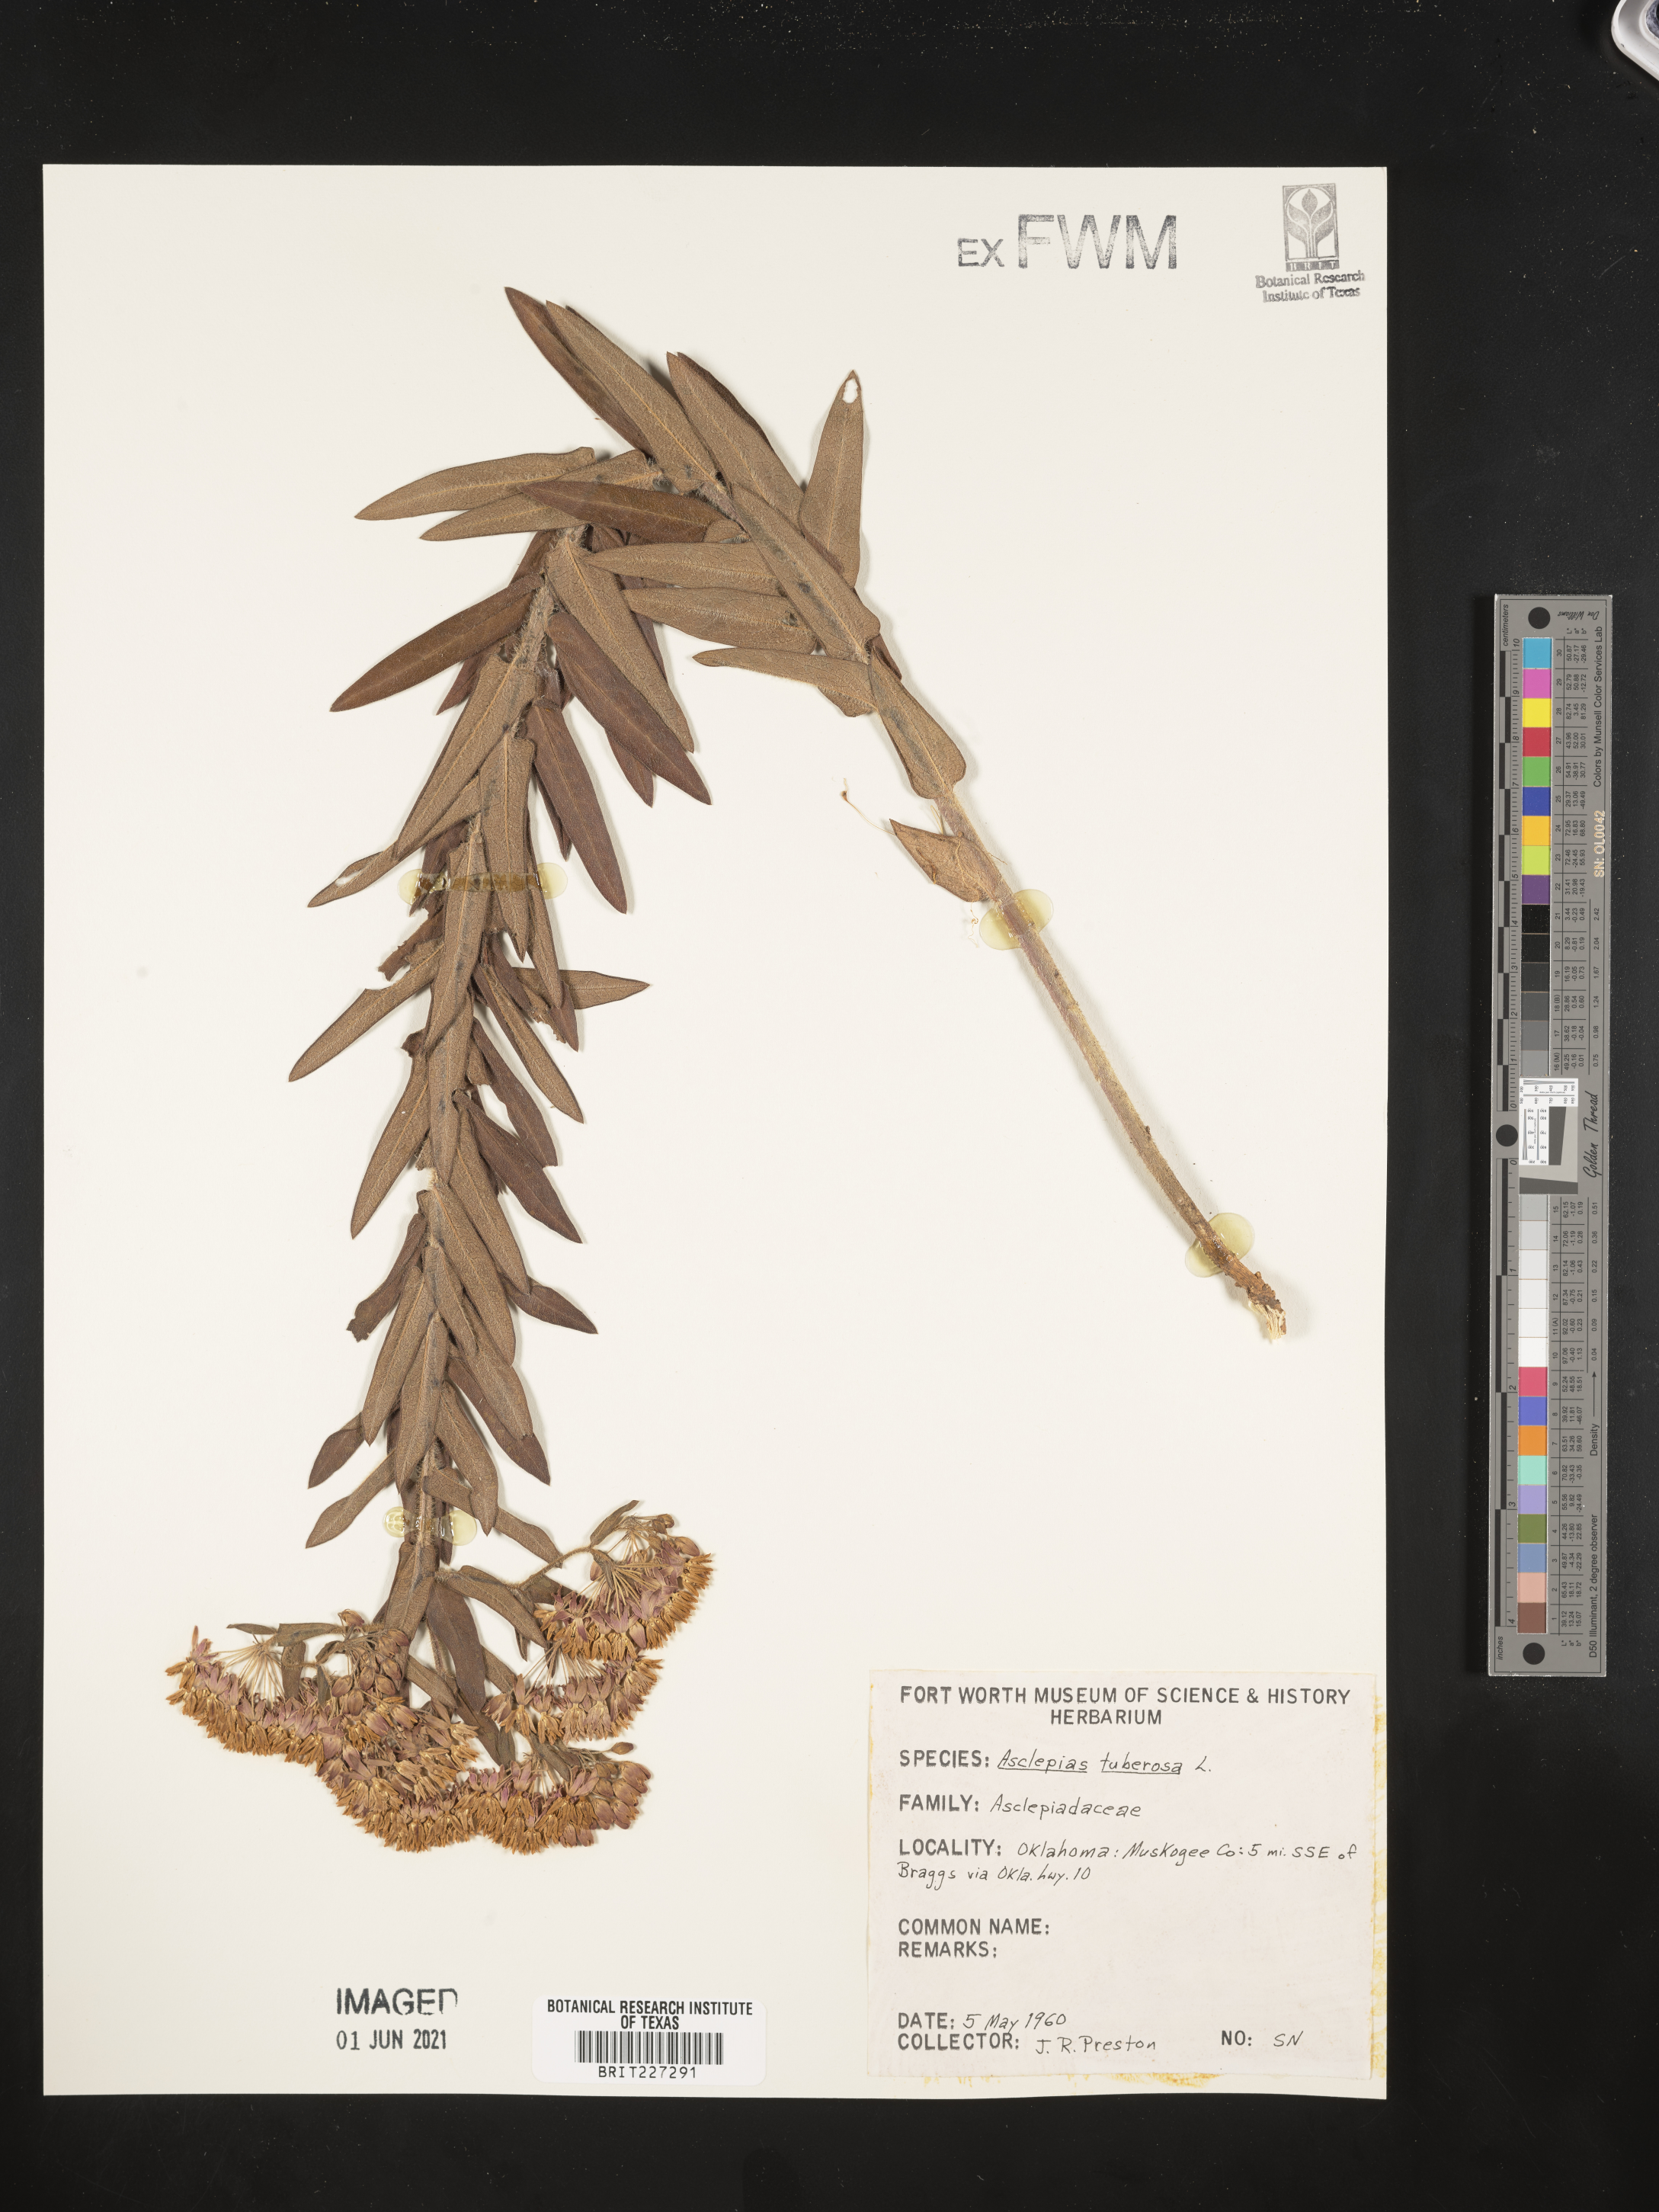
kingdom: Plantae
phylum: Tracheophyta
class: Magnoliopsida
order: Gentianales
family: Apocynaceae
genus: Asclepias
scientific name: Asclepias tuberosa
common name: Butterfly milkweed
